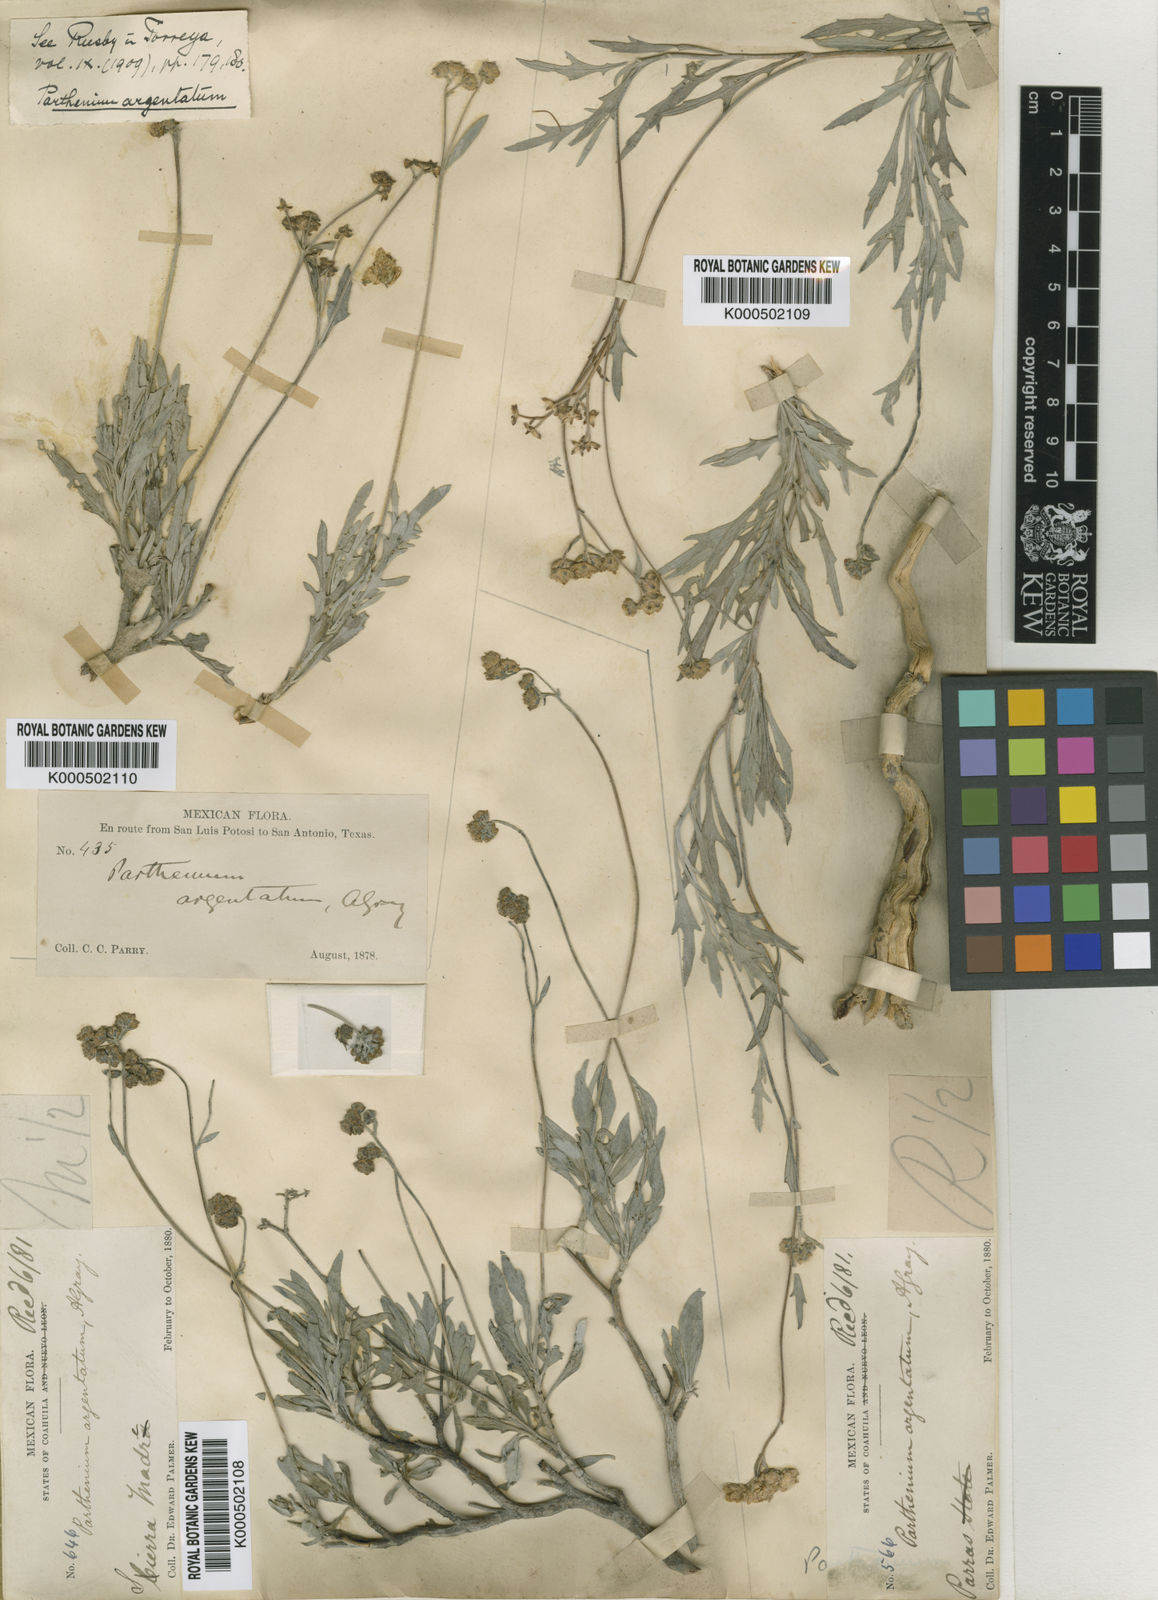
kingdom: Plantae
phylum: Tracheophyta
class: Magnoliopsida
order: Asterales
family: Asteraceae
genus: Parthenium
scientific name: Parthenium argentatum
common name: Guayule
